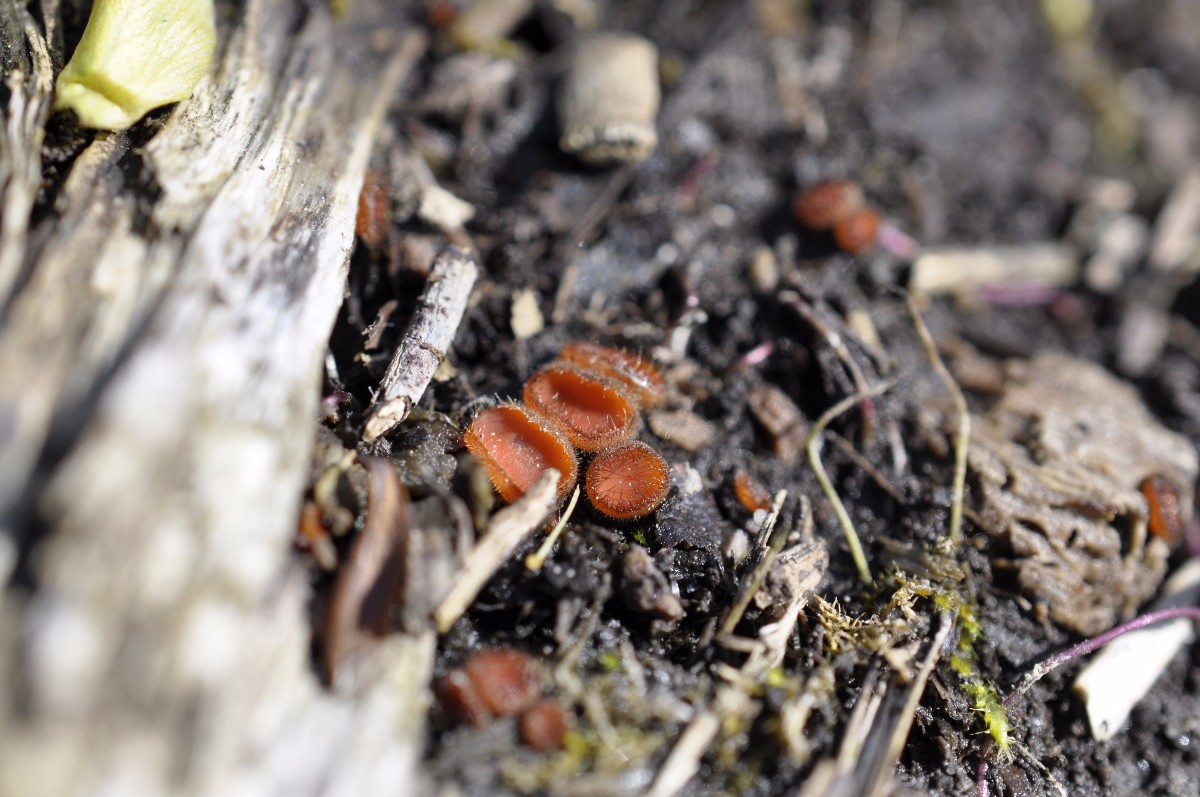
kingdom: Fungi
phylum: Ascomycota
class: Pezizomycetes
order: Pezizales
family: Pyronemataceae
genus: Scutellinia
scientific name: Scutellinia scutellata
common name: frynset skjoldbæger
